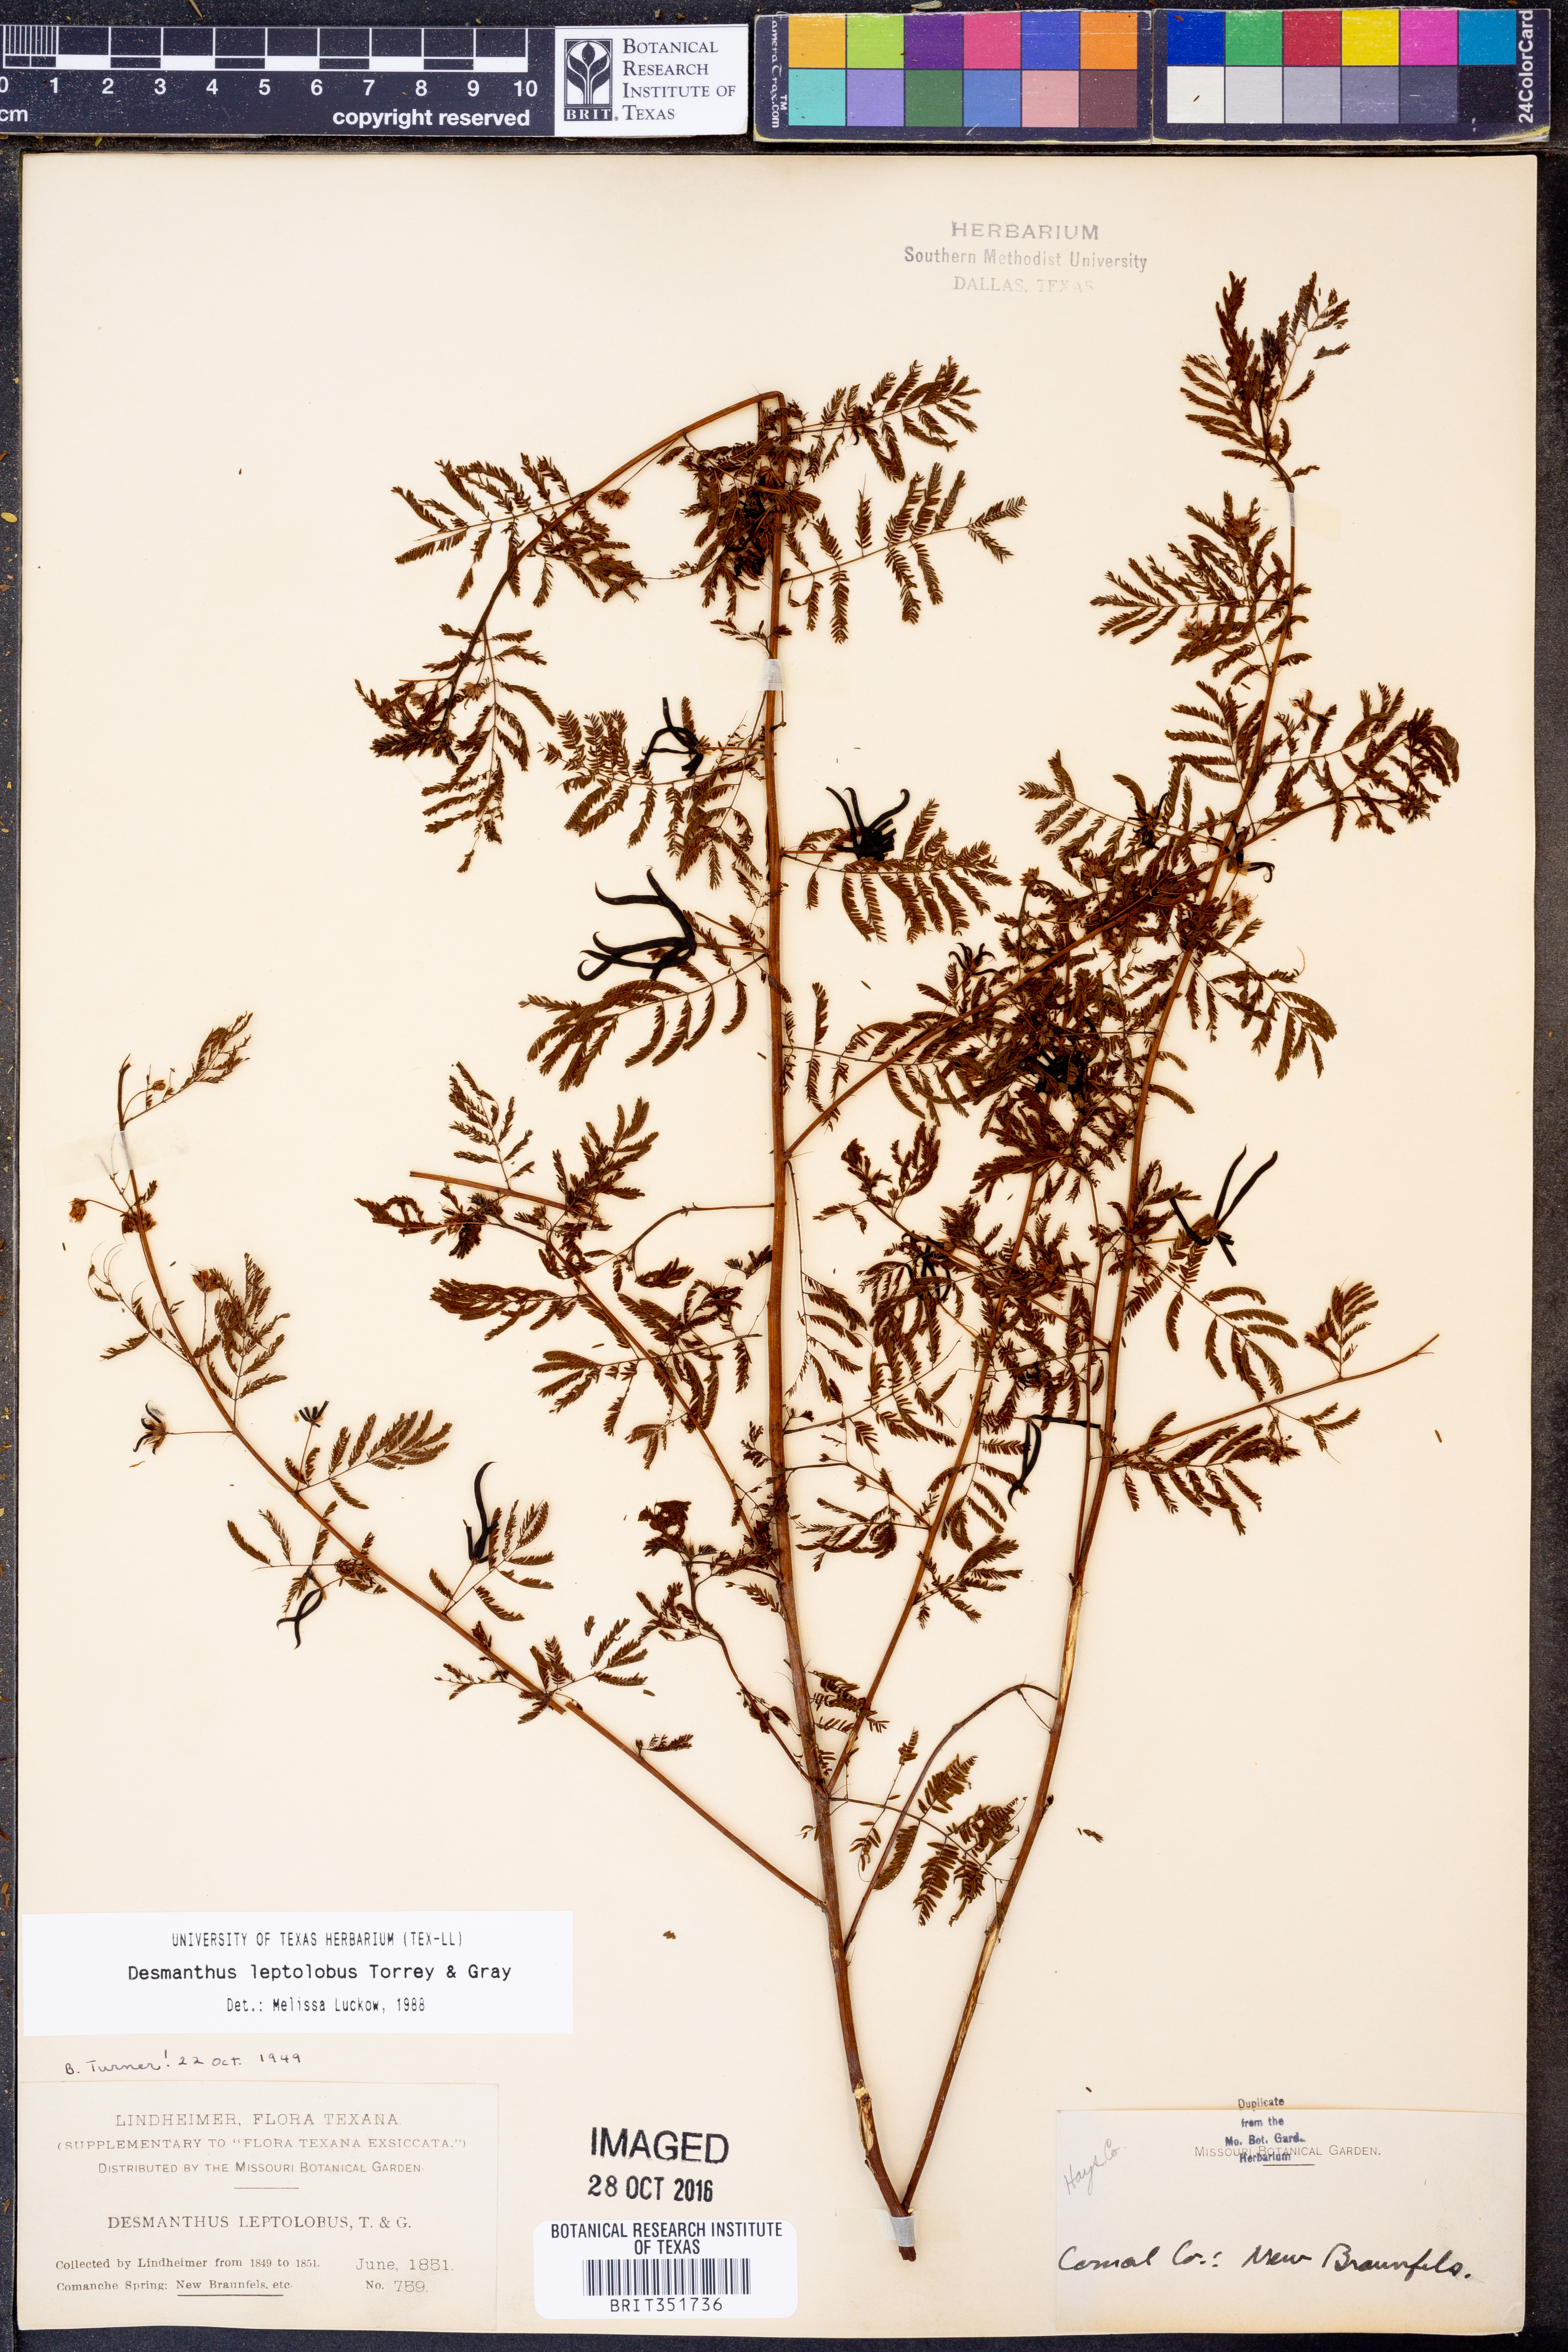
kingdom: Plantae
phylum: Tracheophyta
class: Magnoliopsida
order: Fabales
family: Fabaceae
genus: Desmanthus
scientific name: Desmanthus leptolobus
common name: Prairie-mimosa
